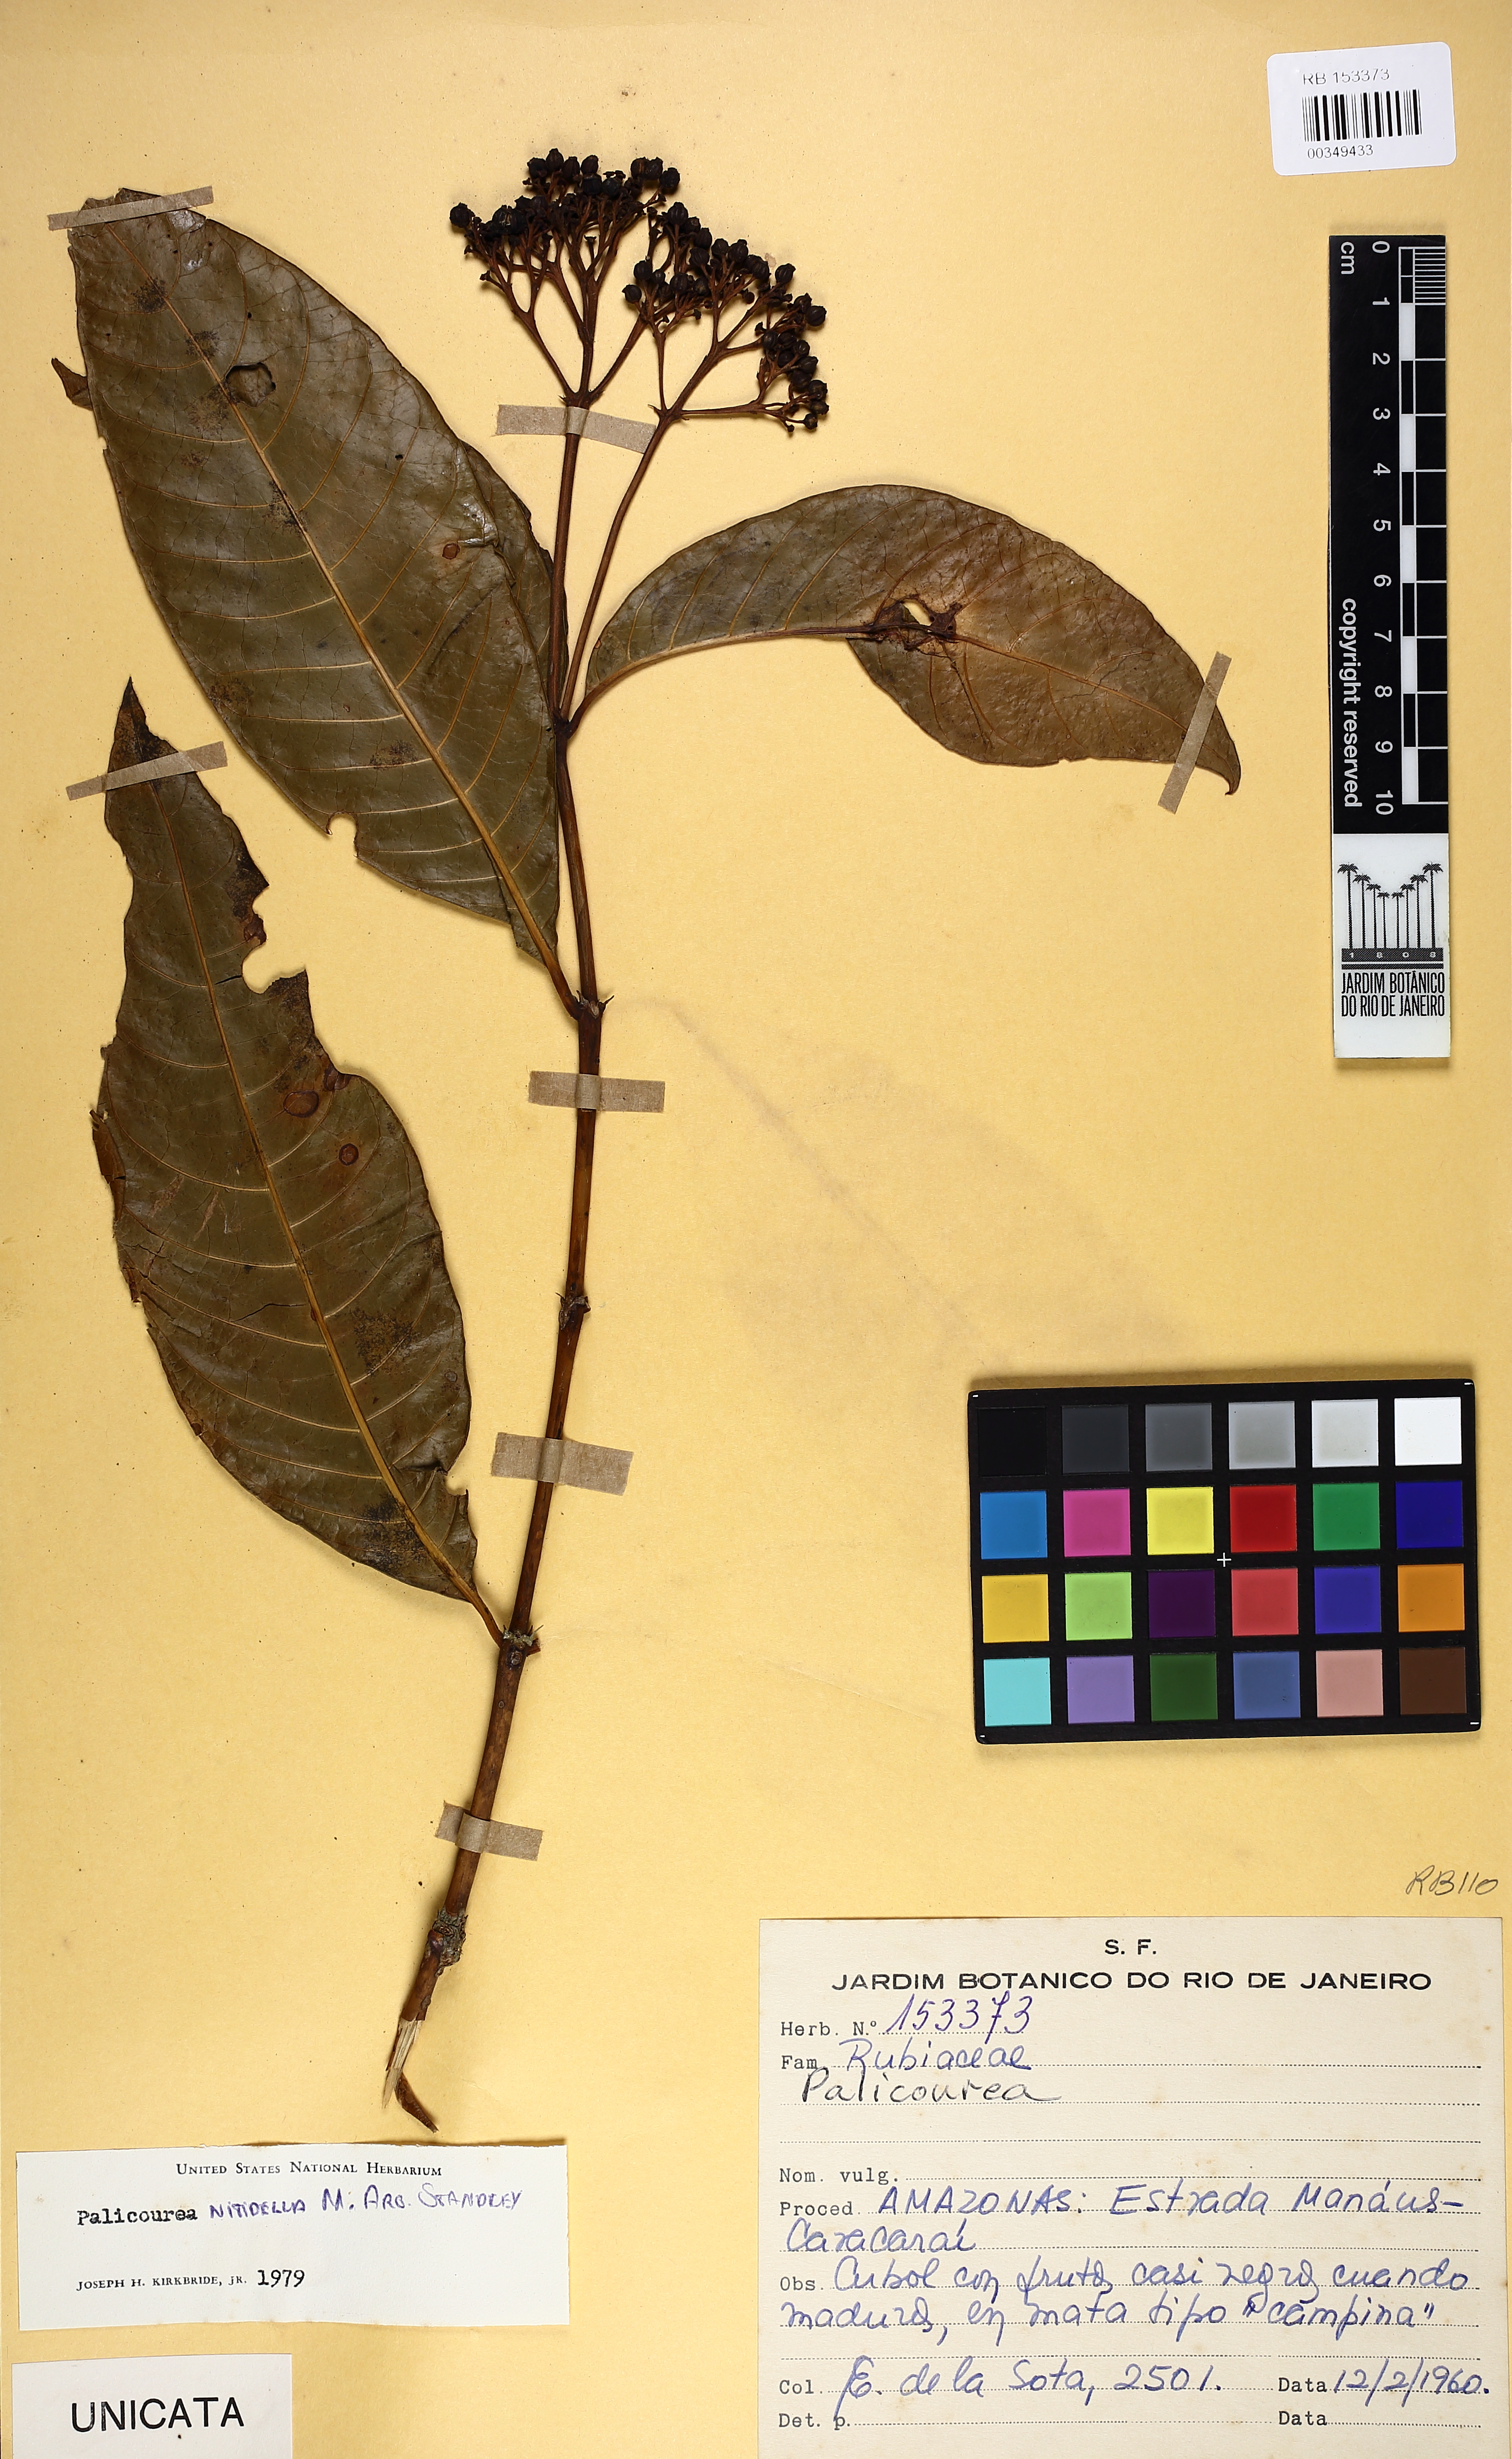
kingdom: Plantae
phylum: Tracheophyta
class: Magnoliopsida
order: Gentianales
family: Rubiaceae
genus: Palicourea
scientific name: Palicourea nitidella
